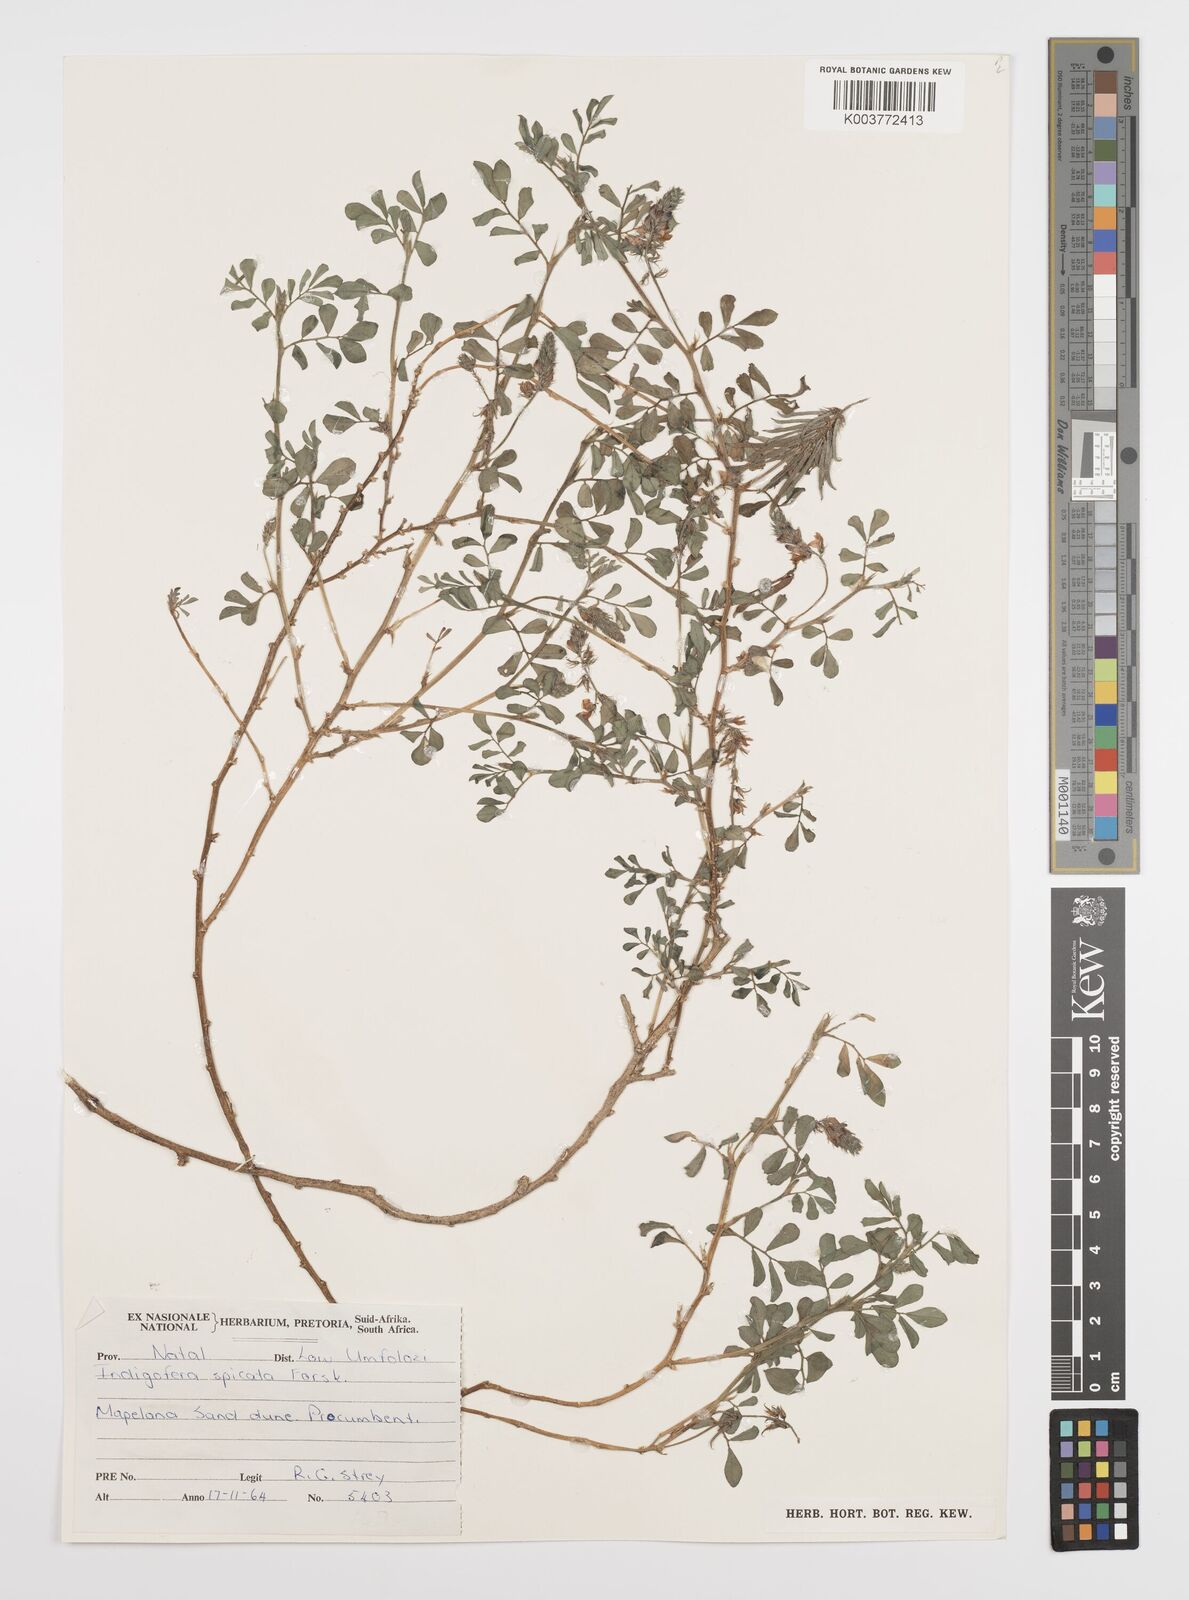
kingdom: Plantae
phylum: Tracheophyta
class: Magnoliopsida
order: Fabales
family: Fabaceae
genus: Indigofera
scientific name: Indigofera spicata
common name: Creeping indigo
